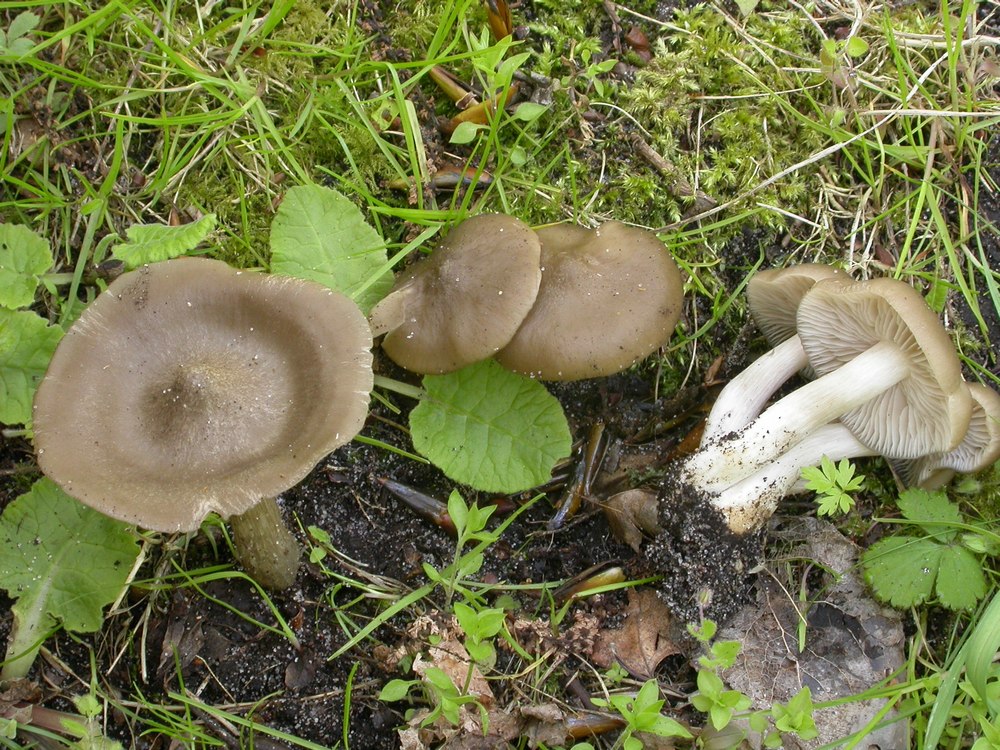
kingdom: Fungi
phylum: Basidiomycota
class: Agaricomycetes
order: Agaricales
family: Entolomataceae
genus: Entoloma
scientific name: Entoloma clypeatum
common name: flammet rødblad
